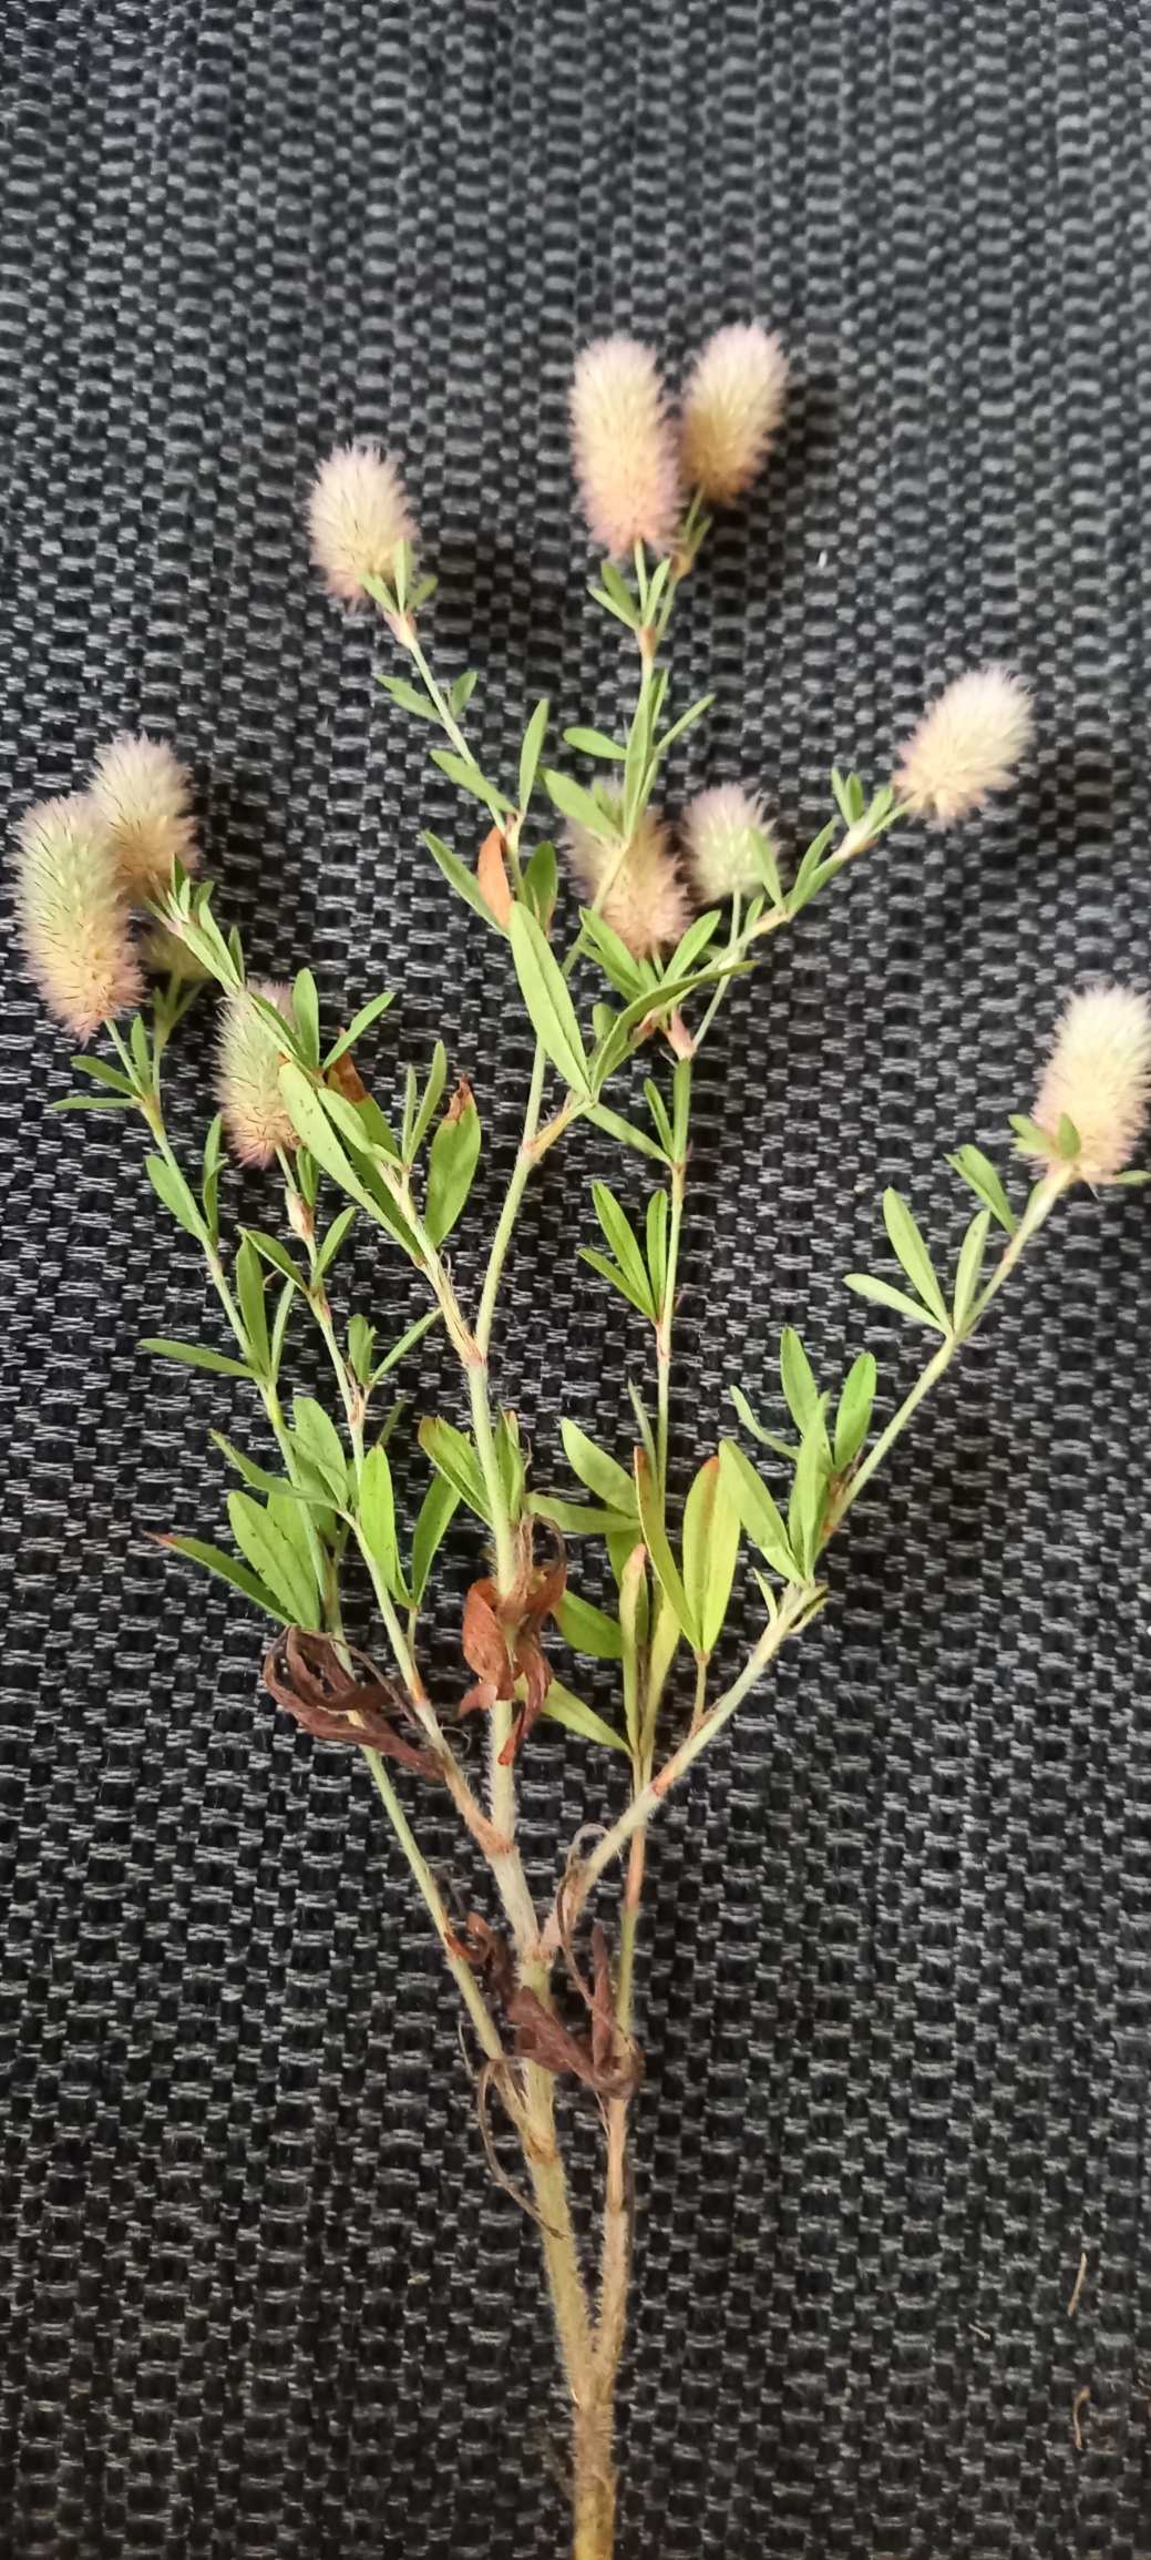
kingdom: Plantae
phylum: Tracheophyta
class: Magnoliopsida
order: Fabales
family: Fabaceae
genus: Trifolium
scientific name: Trifolium arvense
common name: Hare-kløver
